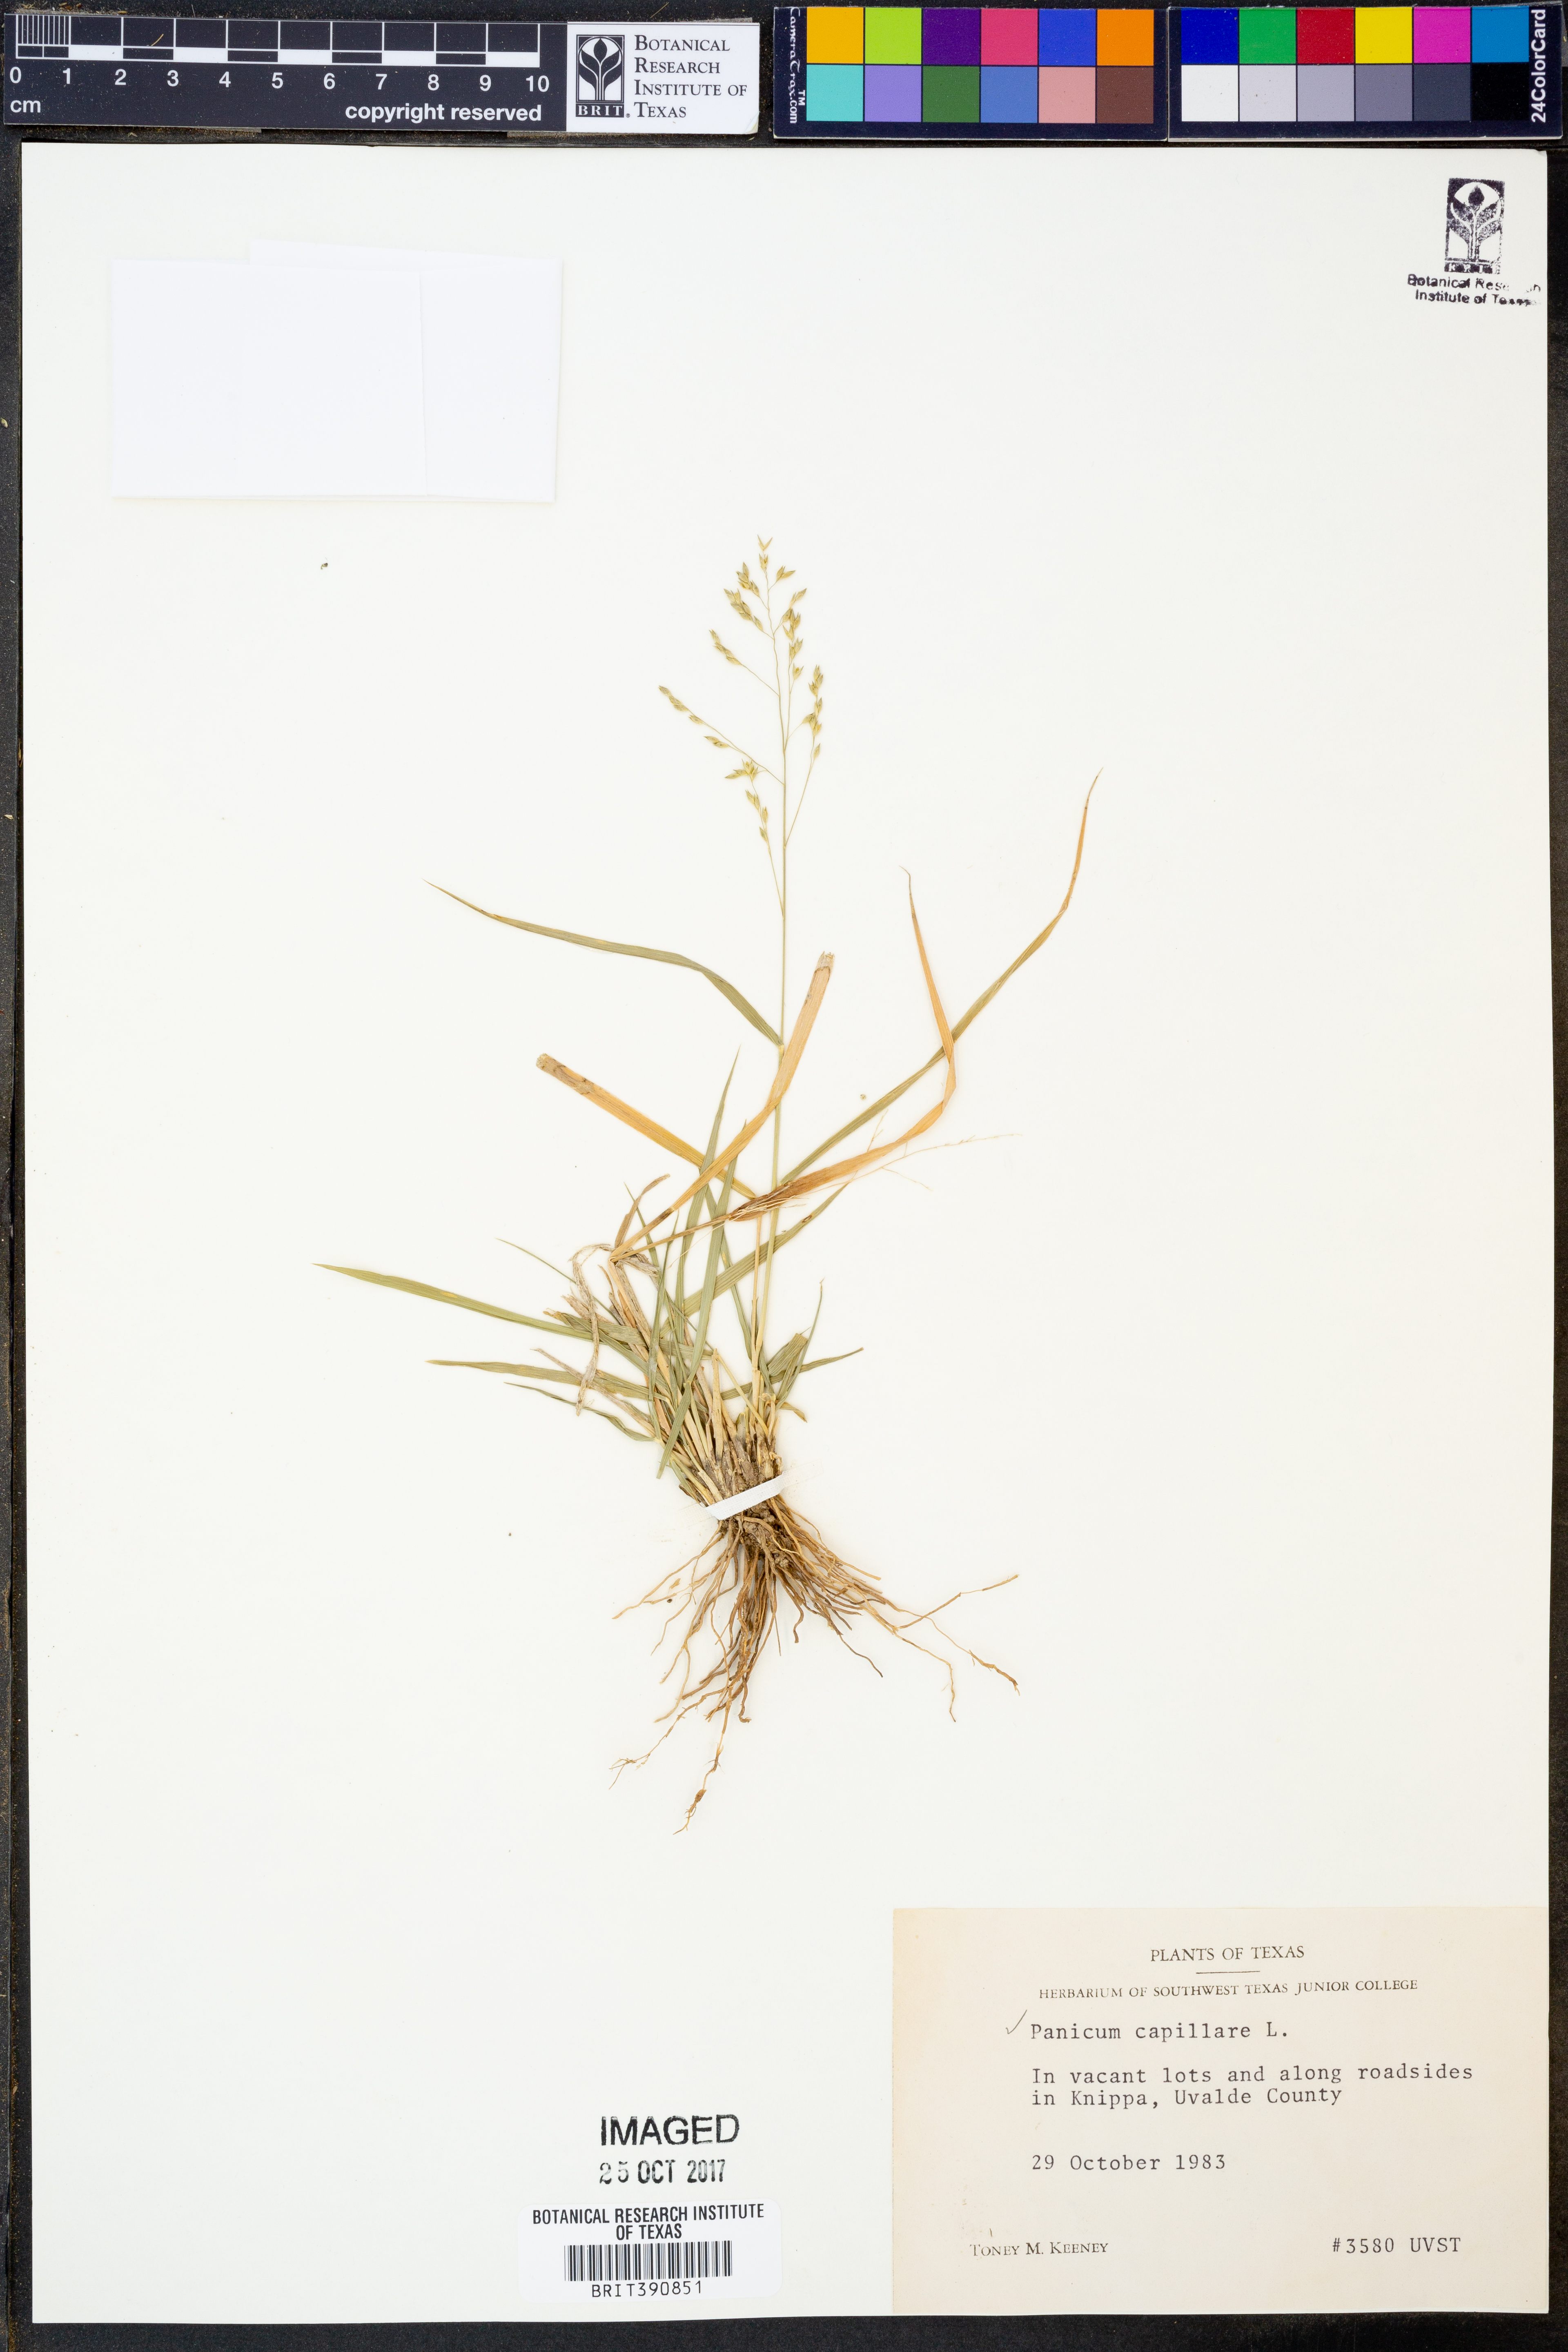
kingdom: Plantae
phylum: Tracheophyta
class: Liliopsida
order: Poales
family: Poaceae
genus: Panicum
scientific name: Panicum capillare
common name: Witch-grass
